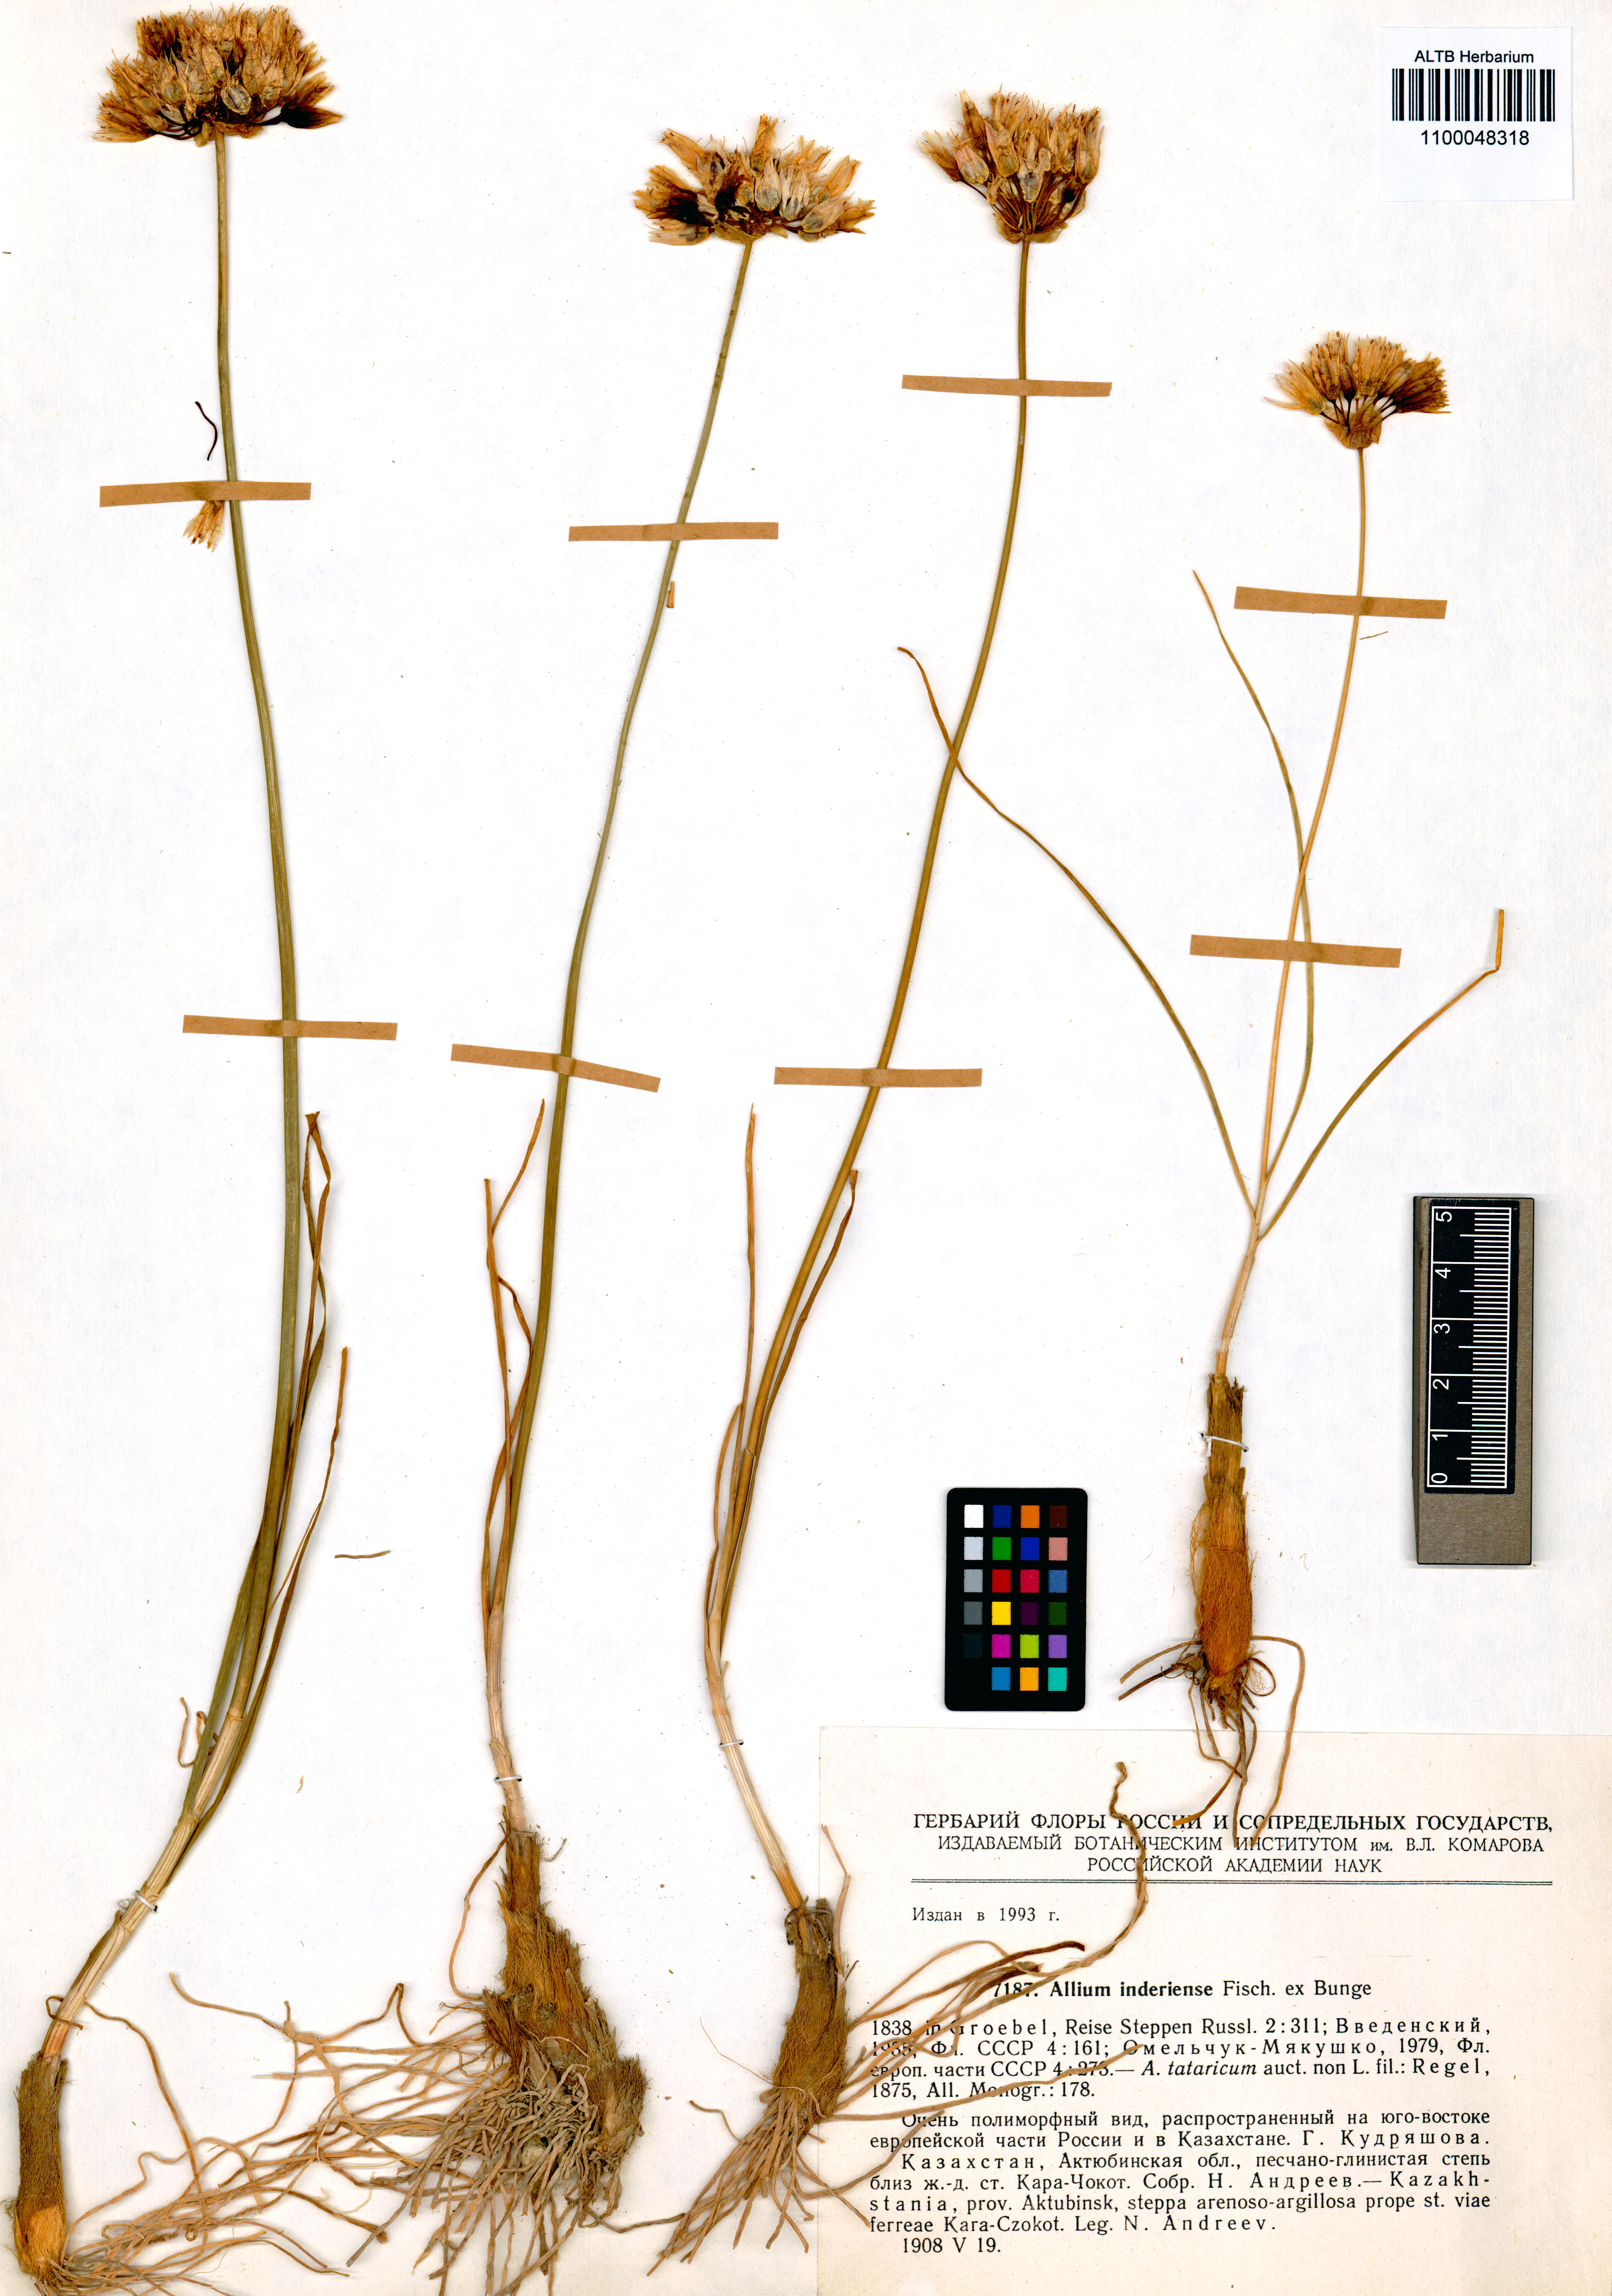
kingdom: Plantae
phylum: Tracheophyta
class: Liliopsida
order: Asparagales
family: Amaryllidaceae
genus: Allium
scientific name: Allium inderiense
